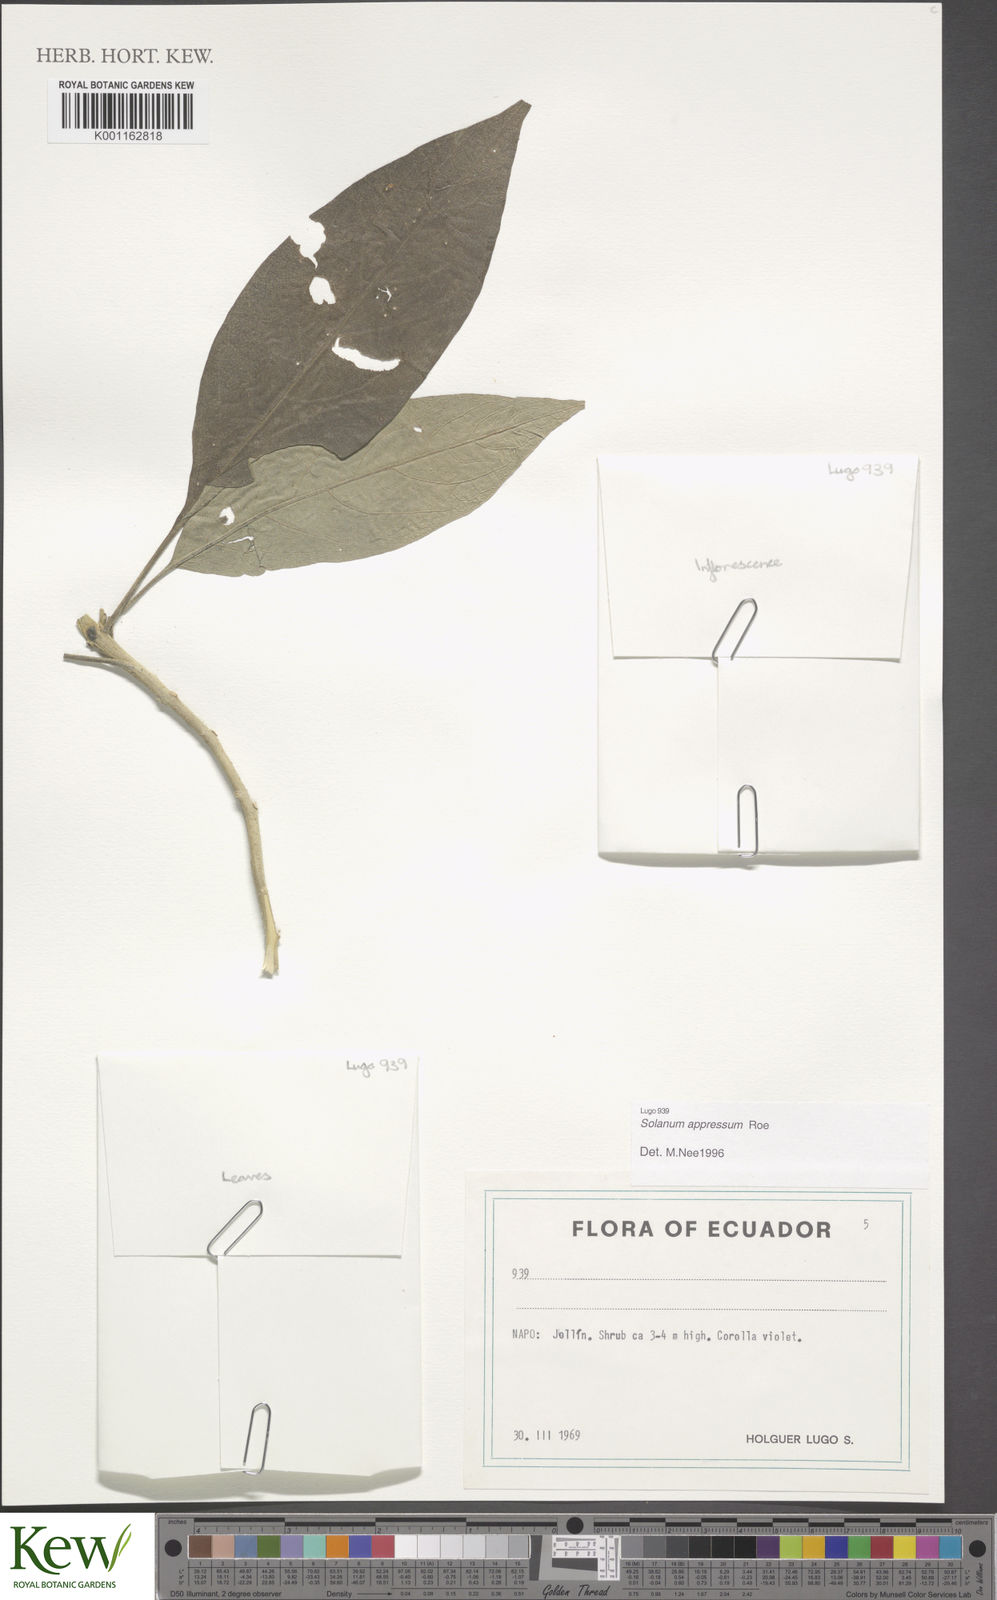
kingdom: Plantae
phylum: Tracheophyta
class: Magnoliopsida
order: Solanales
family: Solanaceae
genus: Solanum
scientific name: Solanum appressum
